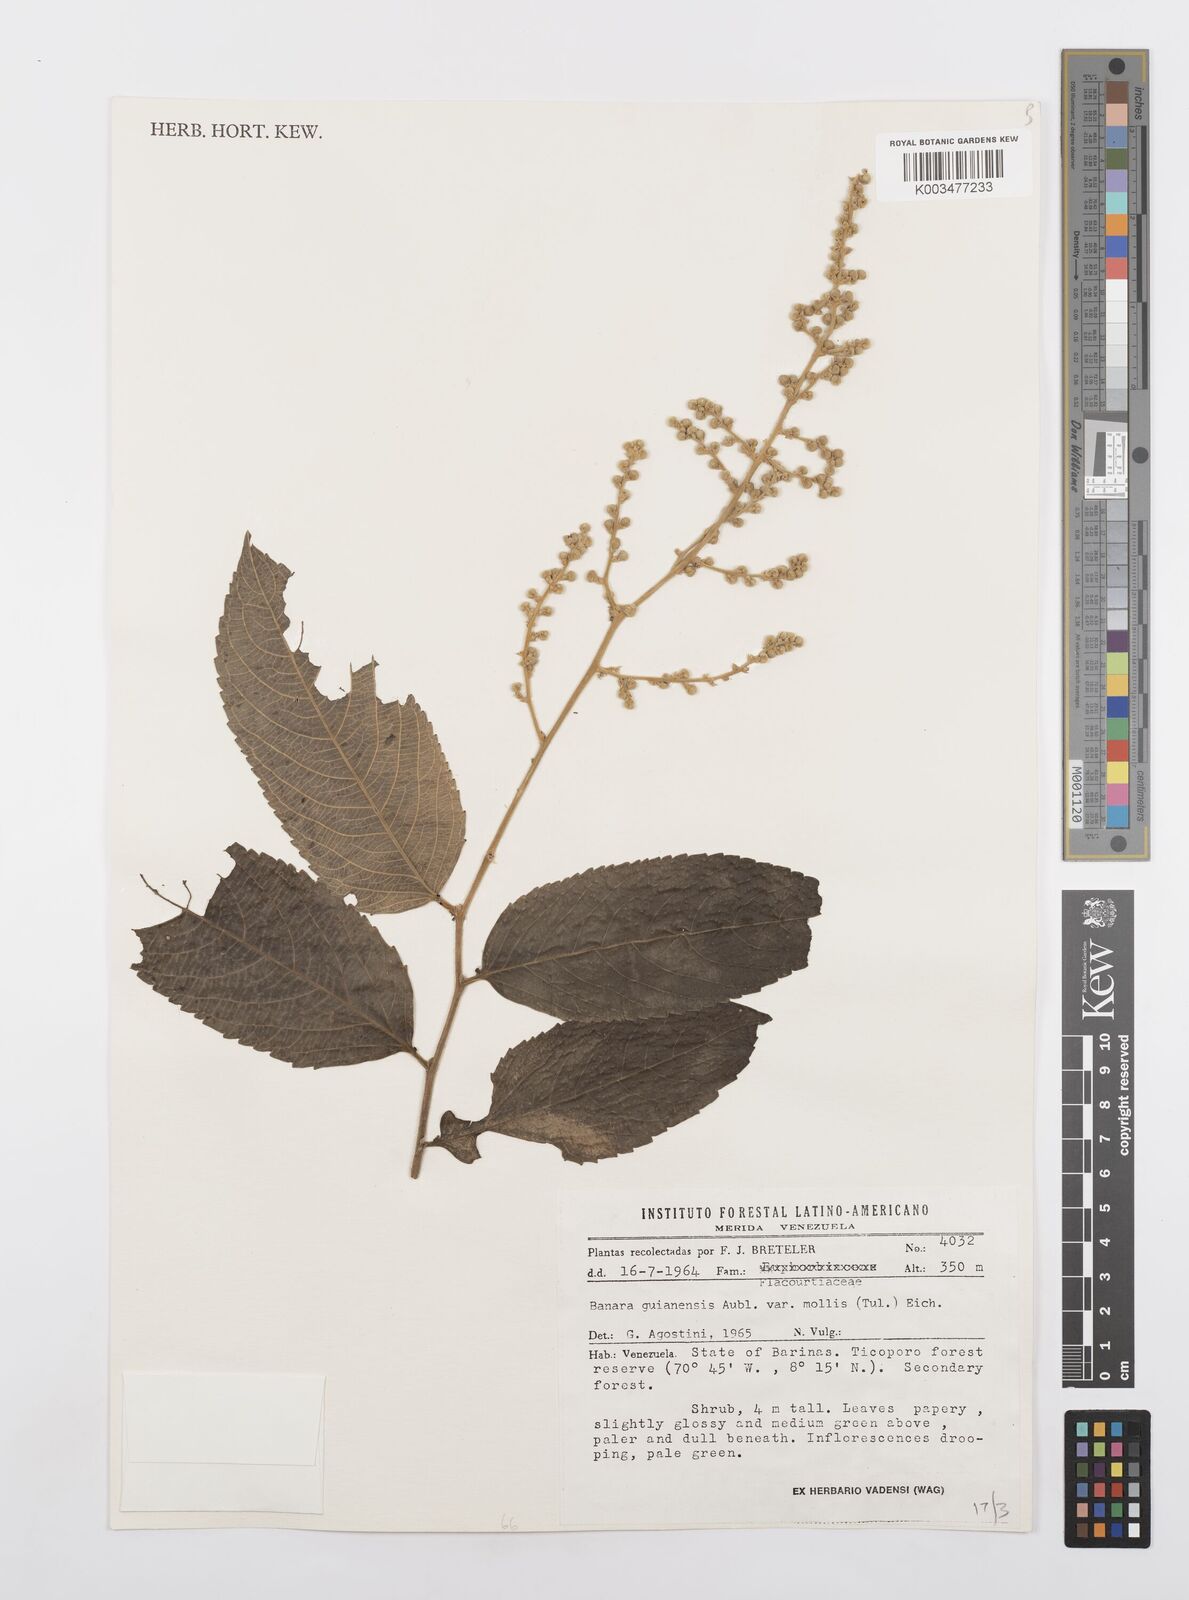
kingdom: Plantae
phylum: Tracheophyta
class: Magnoliopsida
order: Malpighiales
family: Salicaceae
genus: Banara
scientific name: Banara guianensis
